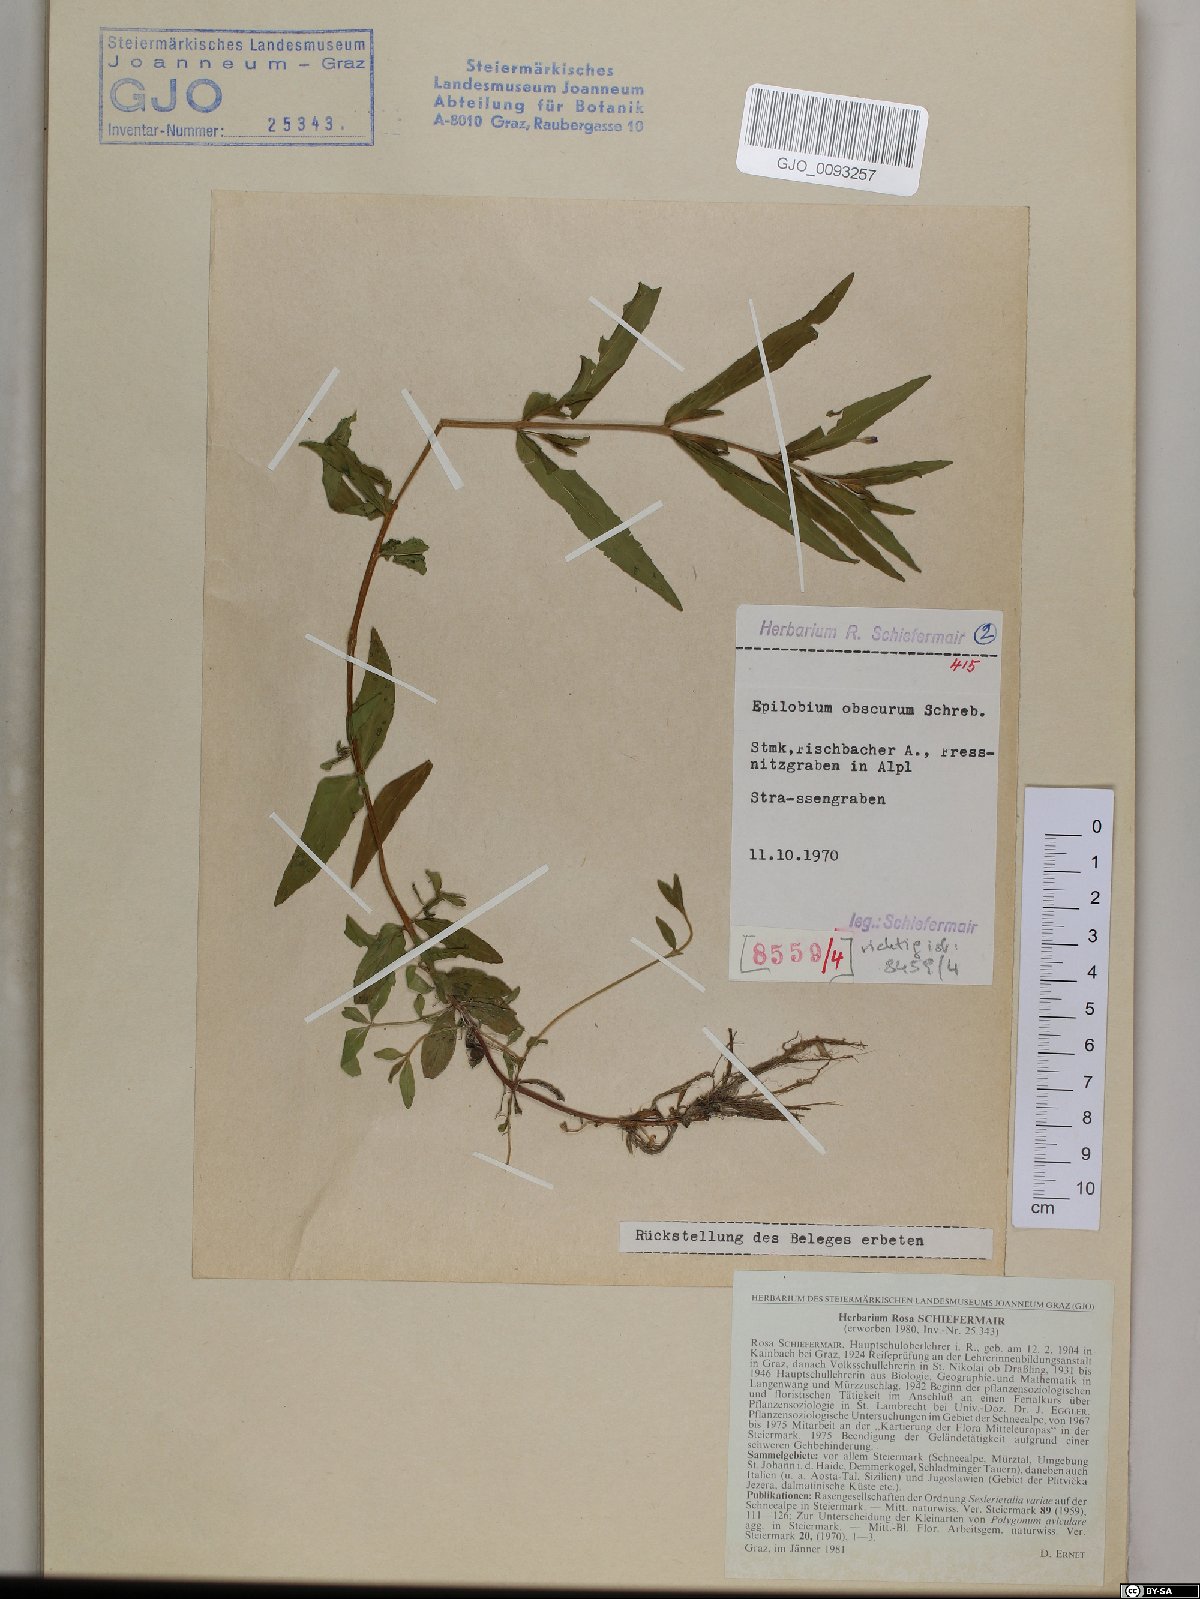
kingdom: Plantae
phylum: Tracheophyta
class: Magnoliopsida
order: Myrtales
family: Onagraceae
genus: Epilobium
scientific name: Epilobium obscurum
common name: Short-fruited willowherb
